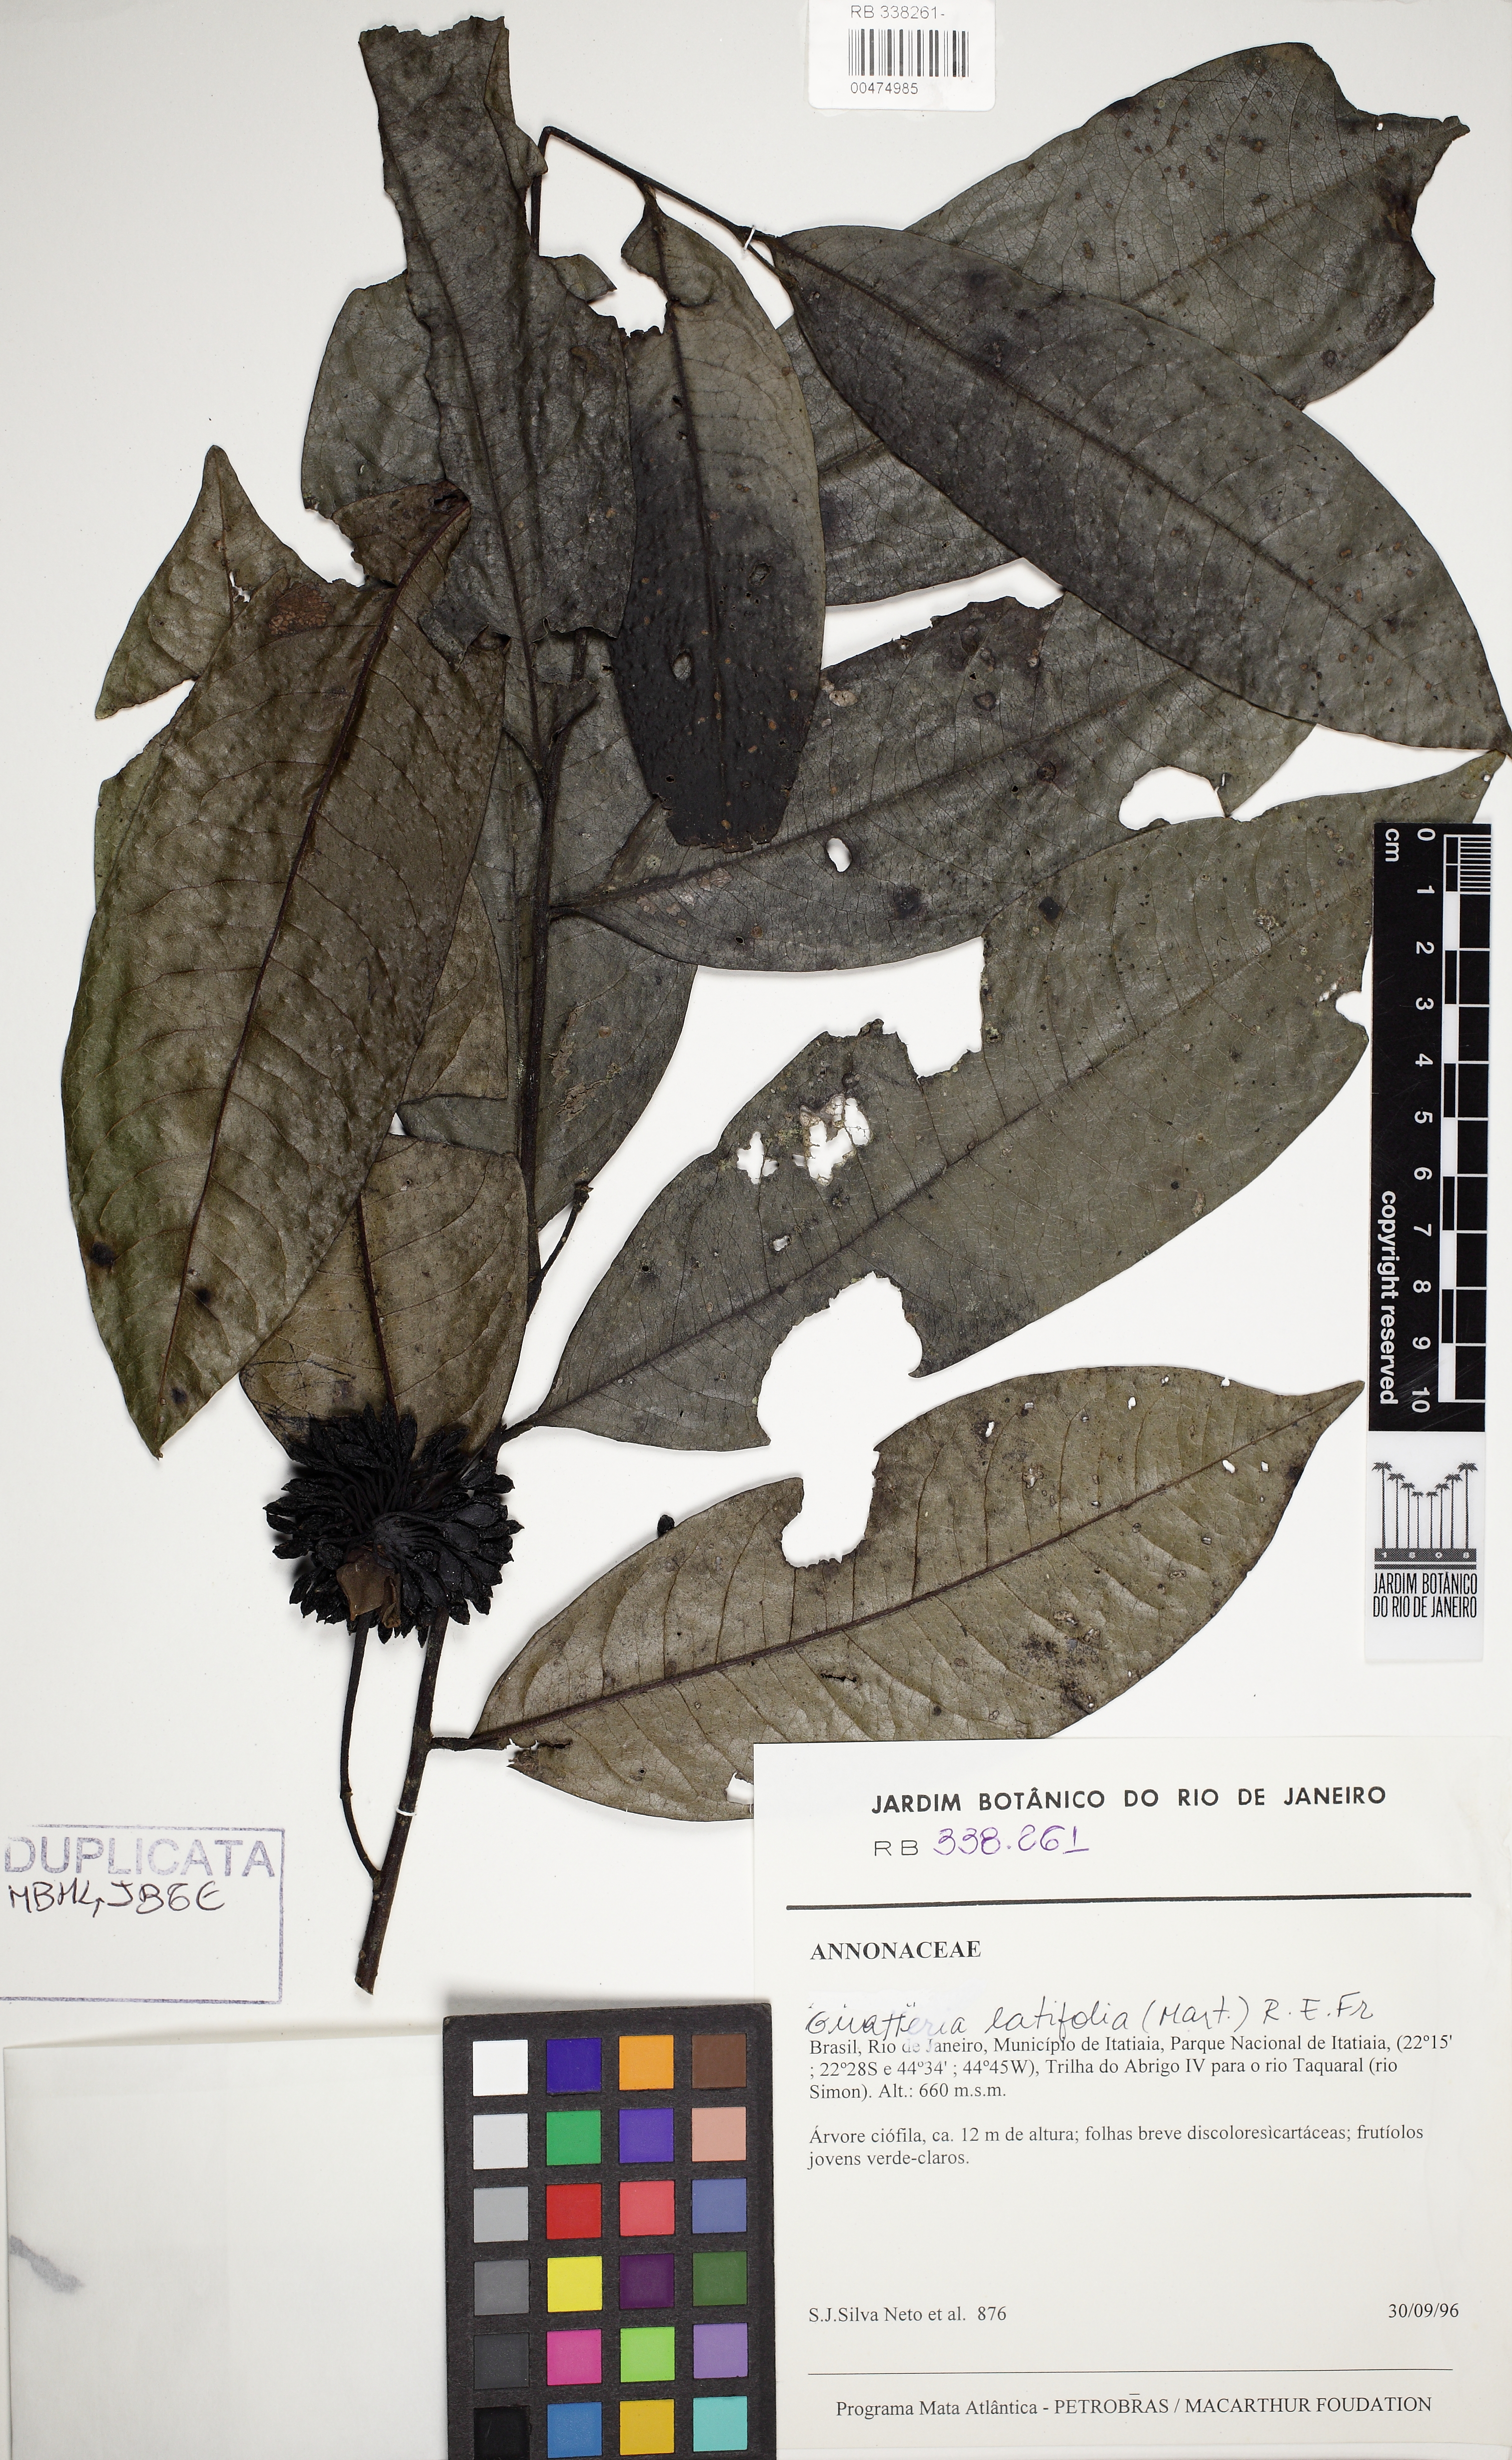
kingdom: Plantae
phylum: Tracheophyta
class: Magnoliopsida
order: Magnoliales
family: Annonaceae
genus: Guatteria
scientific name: Guatteria latifolia
